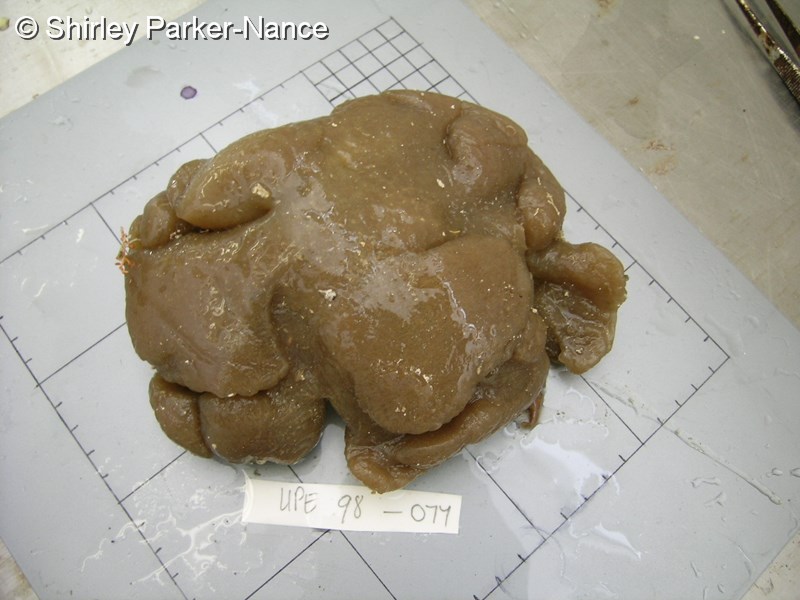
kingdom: Animalia
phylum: Chordata
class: Ascidiacea
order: Aplousobranchia
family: Polyclinidae
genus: Aplidium
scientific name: Aplidium
